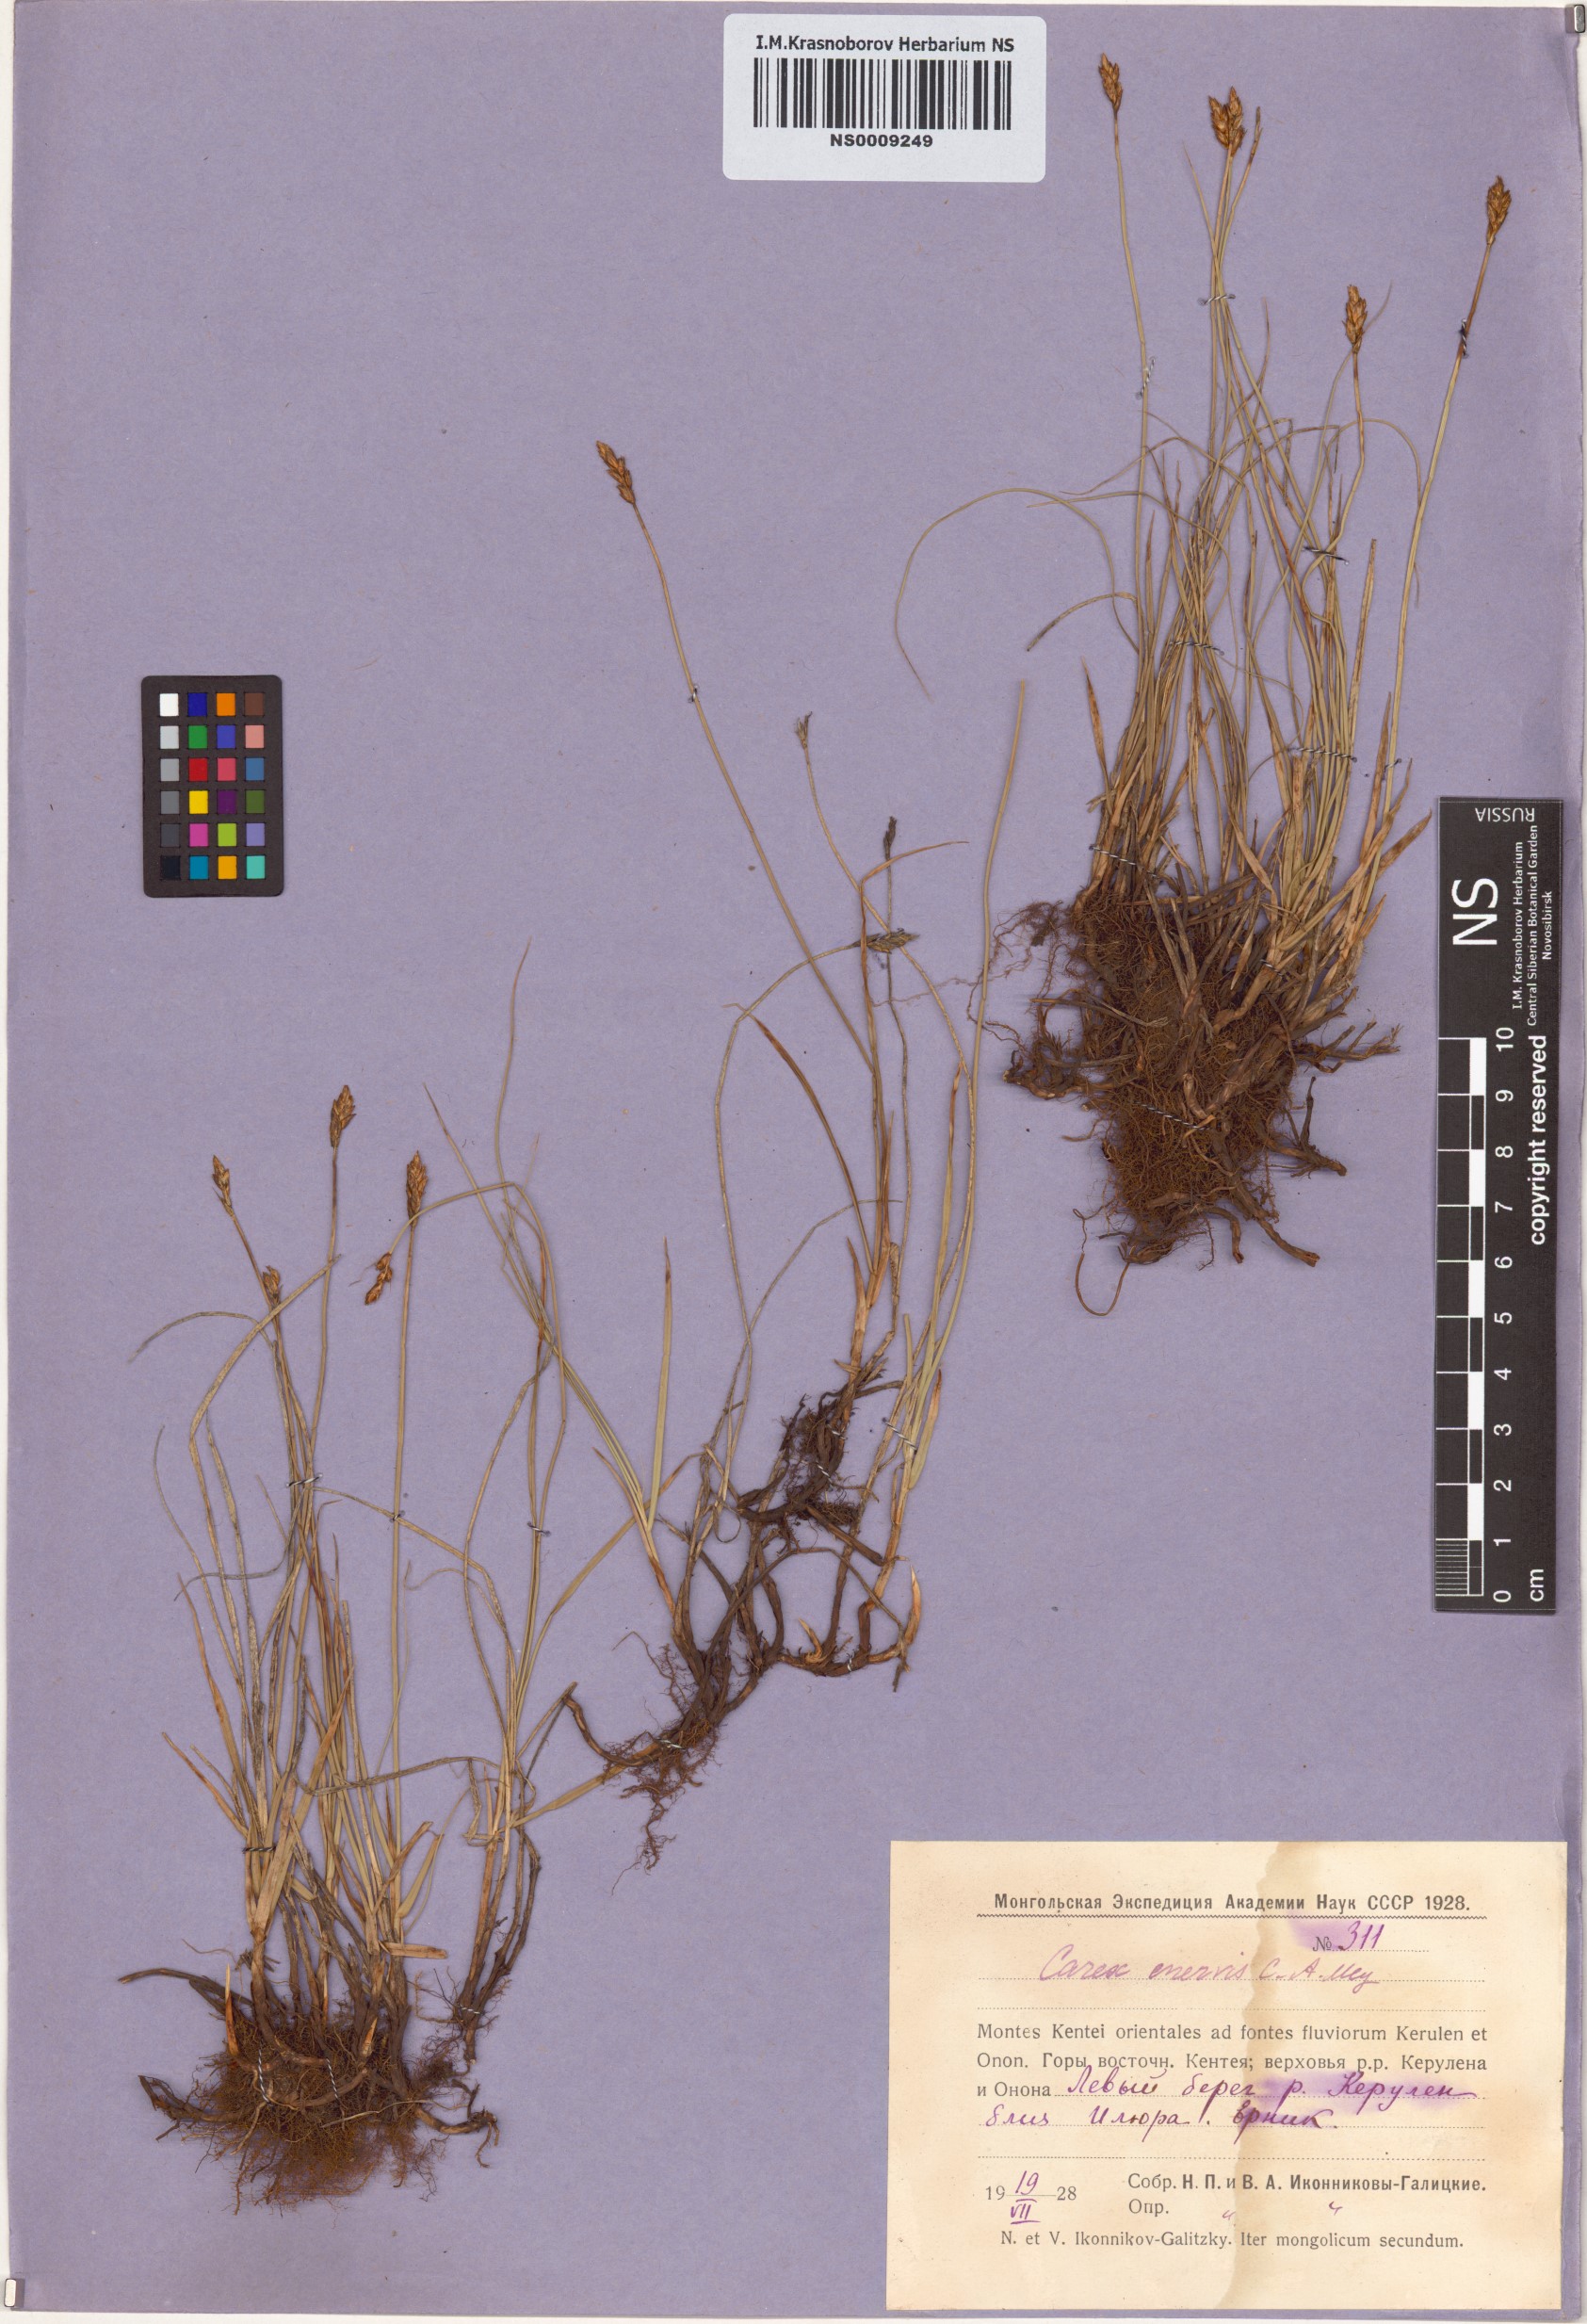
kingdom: Plantae
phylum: Tracheophyta
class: Liliopsida
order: Poales
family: Cyperaceae
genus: Carex
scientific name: Carex enervis
